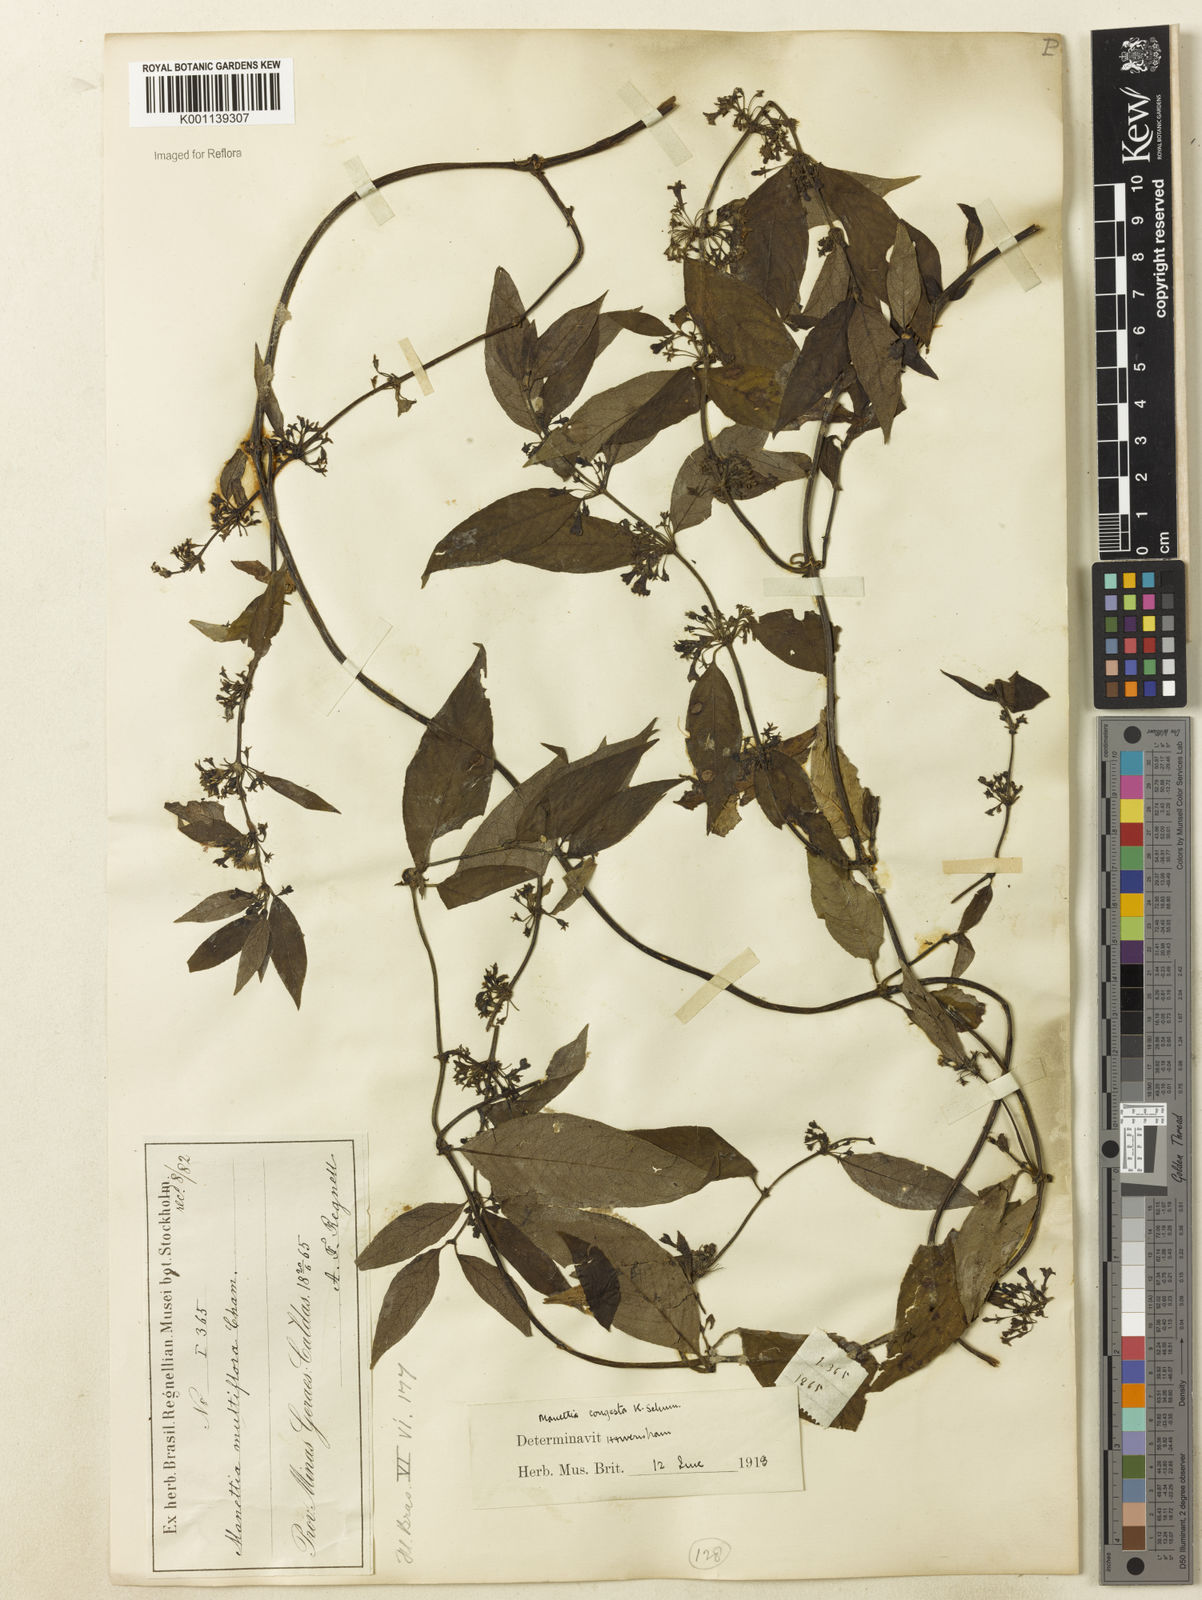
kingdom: Plantae
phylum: Tracheophyta
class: Magnoliopsida
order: Gentianales
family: Rubiaceae
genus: Manettia
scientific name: Manettia congesta
